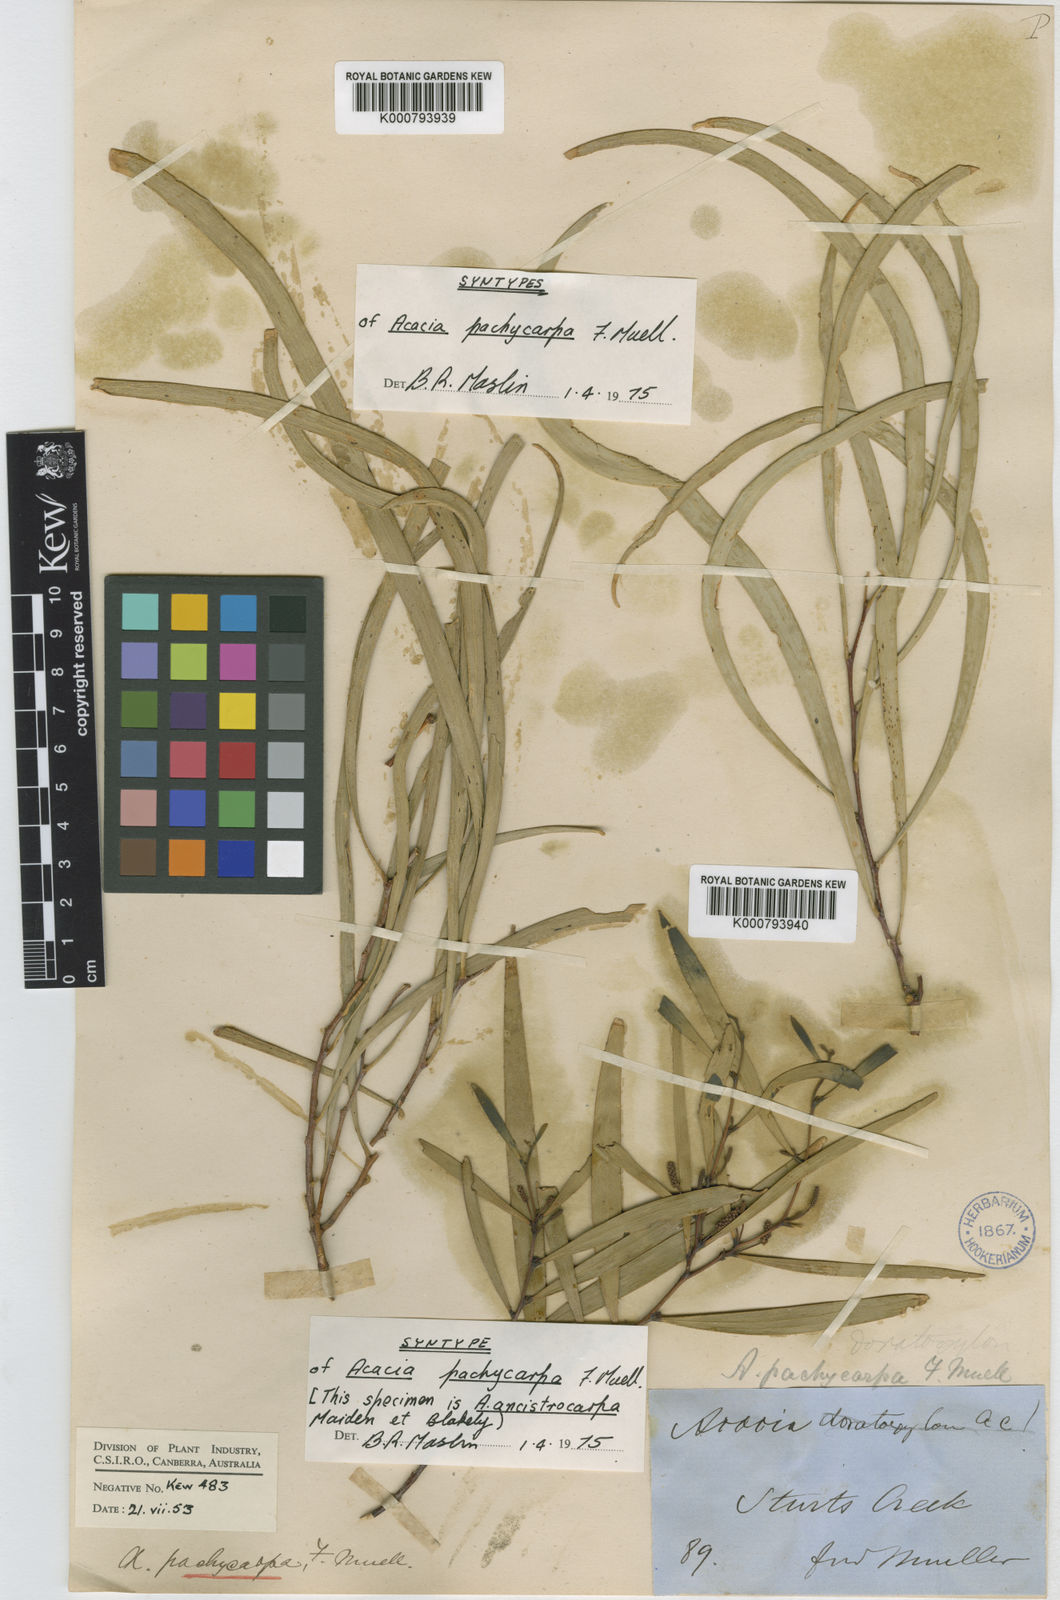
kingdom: Plantae
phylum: Tracheophyta
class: Magnoliopsida
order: Fabales
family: Fabaceae
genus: Acacia
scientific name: Acacia
